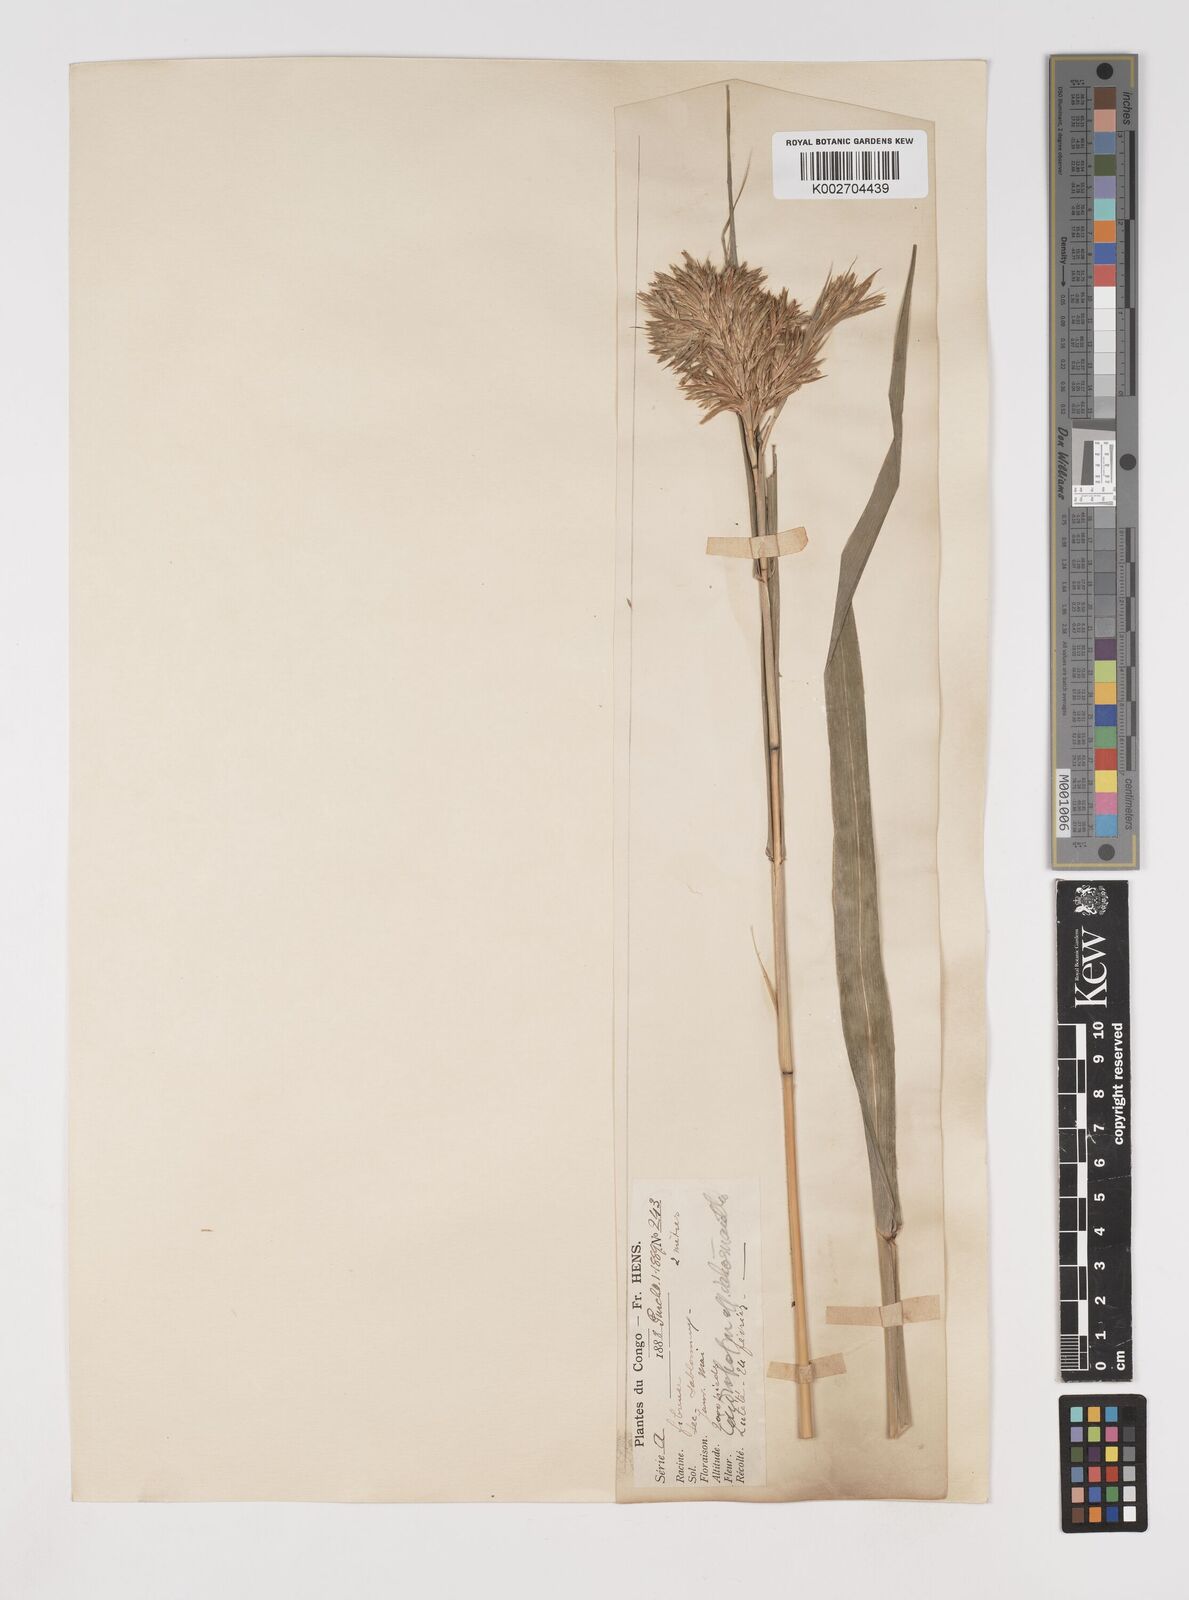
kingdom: Plantae
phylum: Tracheophyta
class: Liliopsida
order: Poales
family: Poaceae
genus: Cymbopogon
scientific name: Cymbopogon densiflorus
